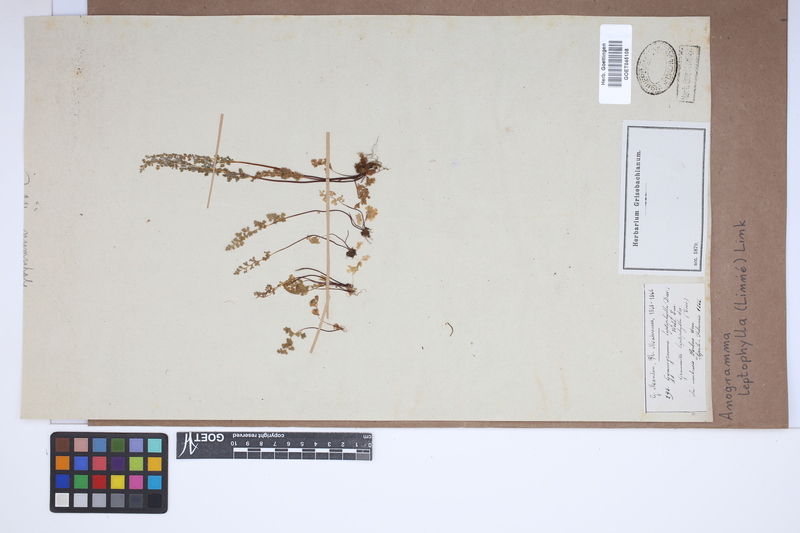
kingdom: Plantae
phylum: Tracheophyta
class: Polypodiopsida
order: Polypodiales
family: Pteridaceae
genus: Anogramma
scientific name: Anogramma leptophylla
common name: Jersey fern
